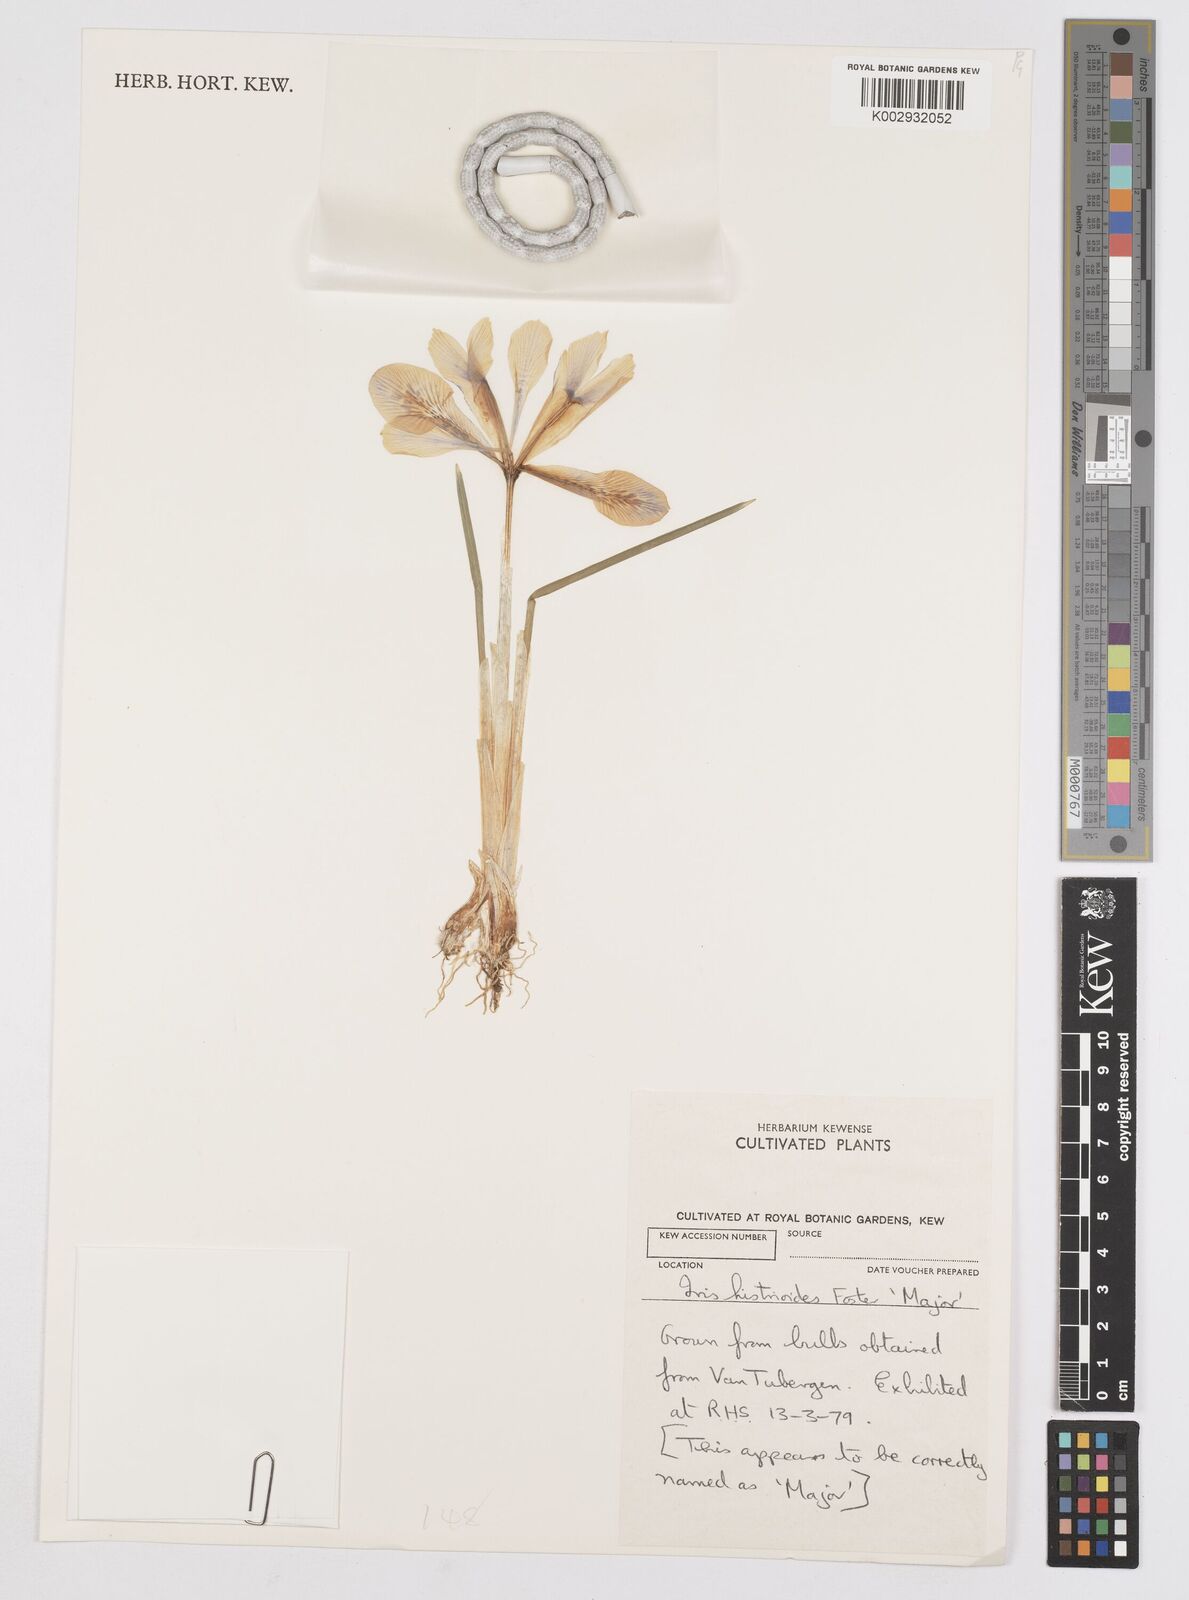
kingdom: Plantae
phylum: Tracheophyta
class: Liliopsida
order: Asparagales
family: Iridaceae
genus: Iris
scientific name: Iris histrioides
